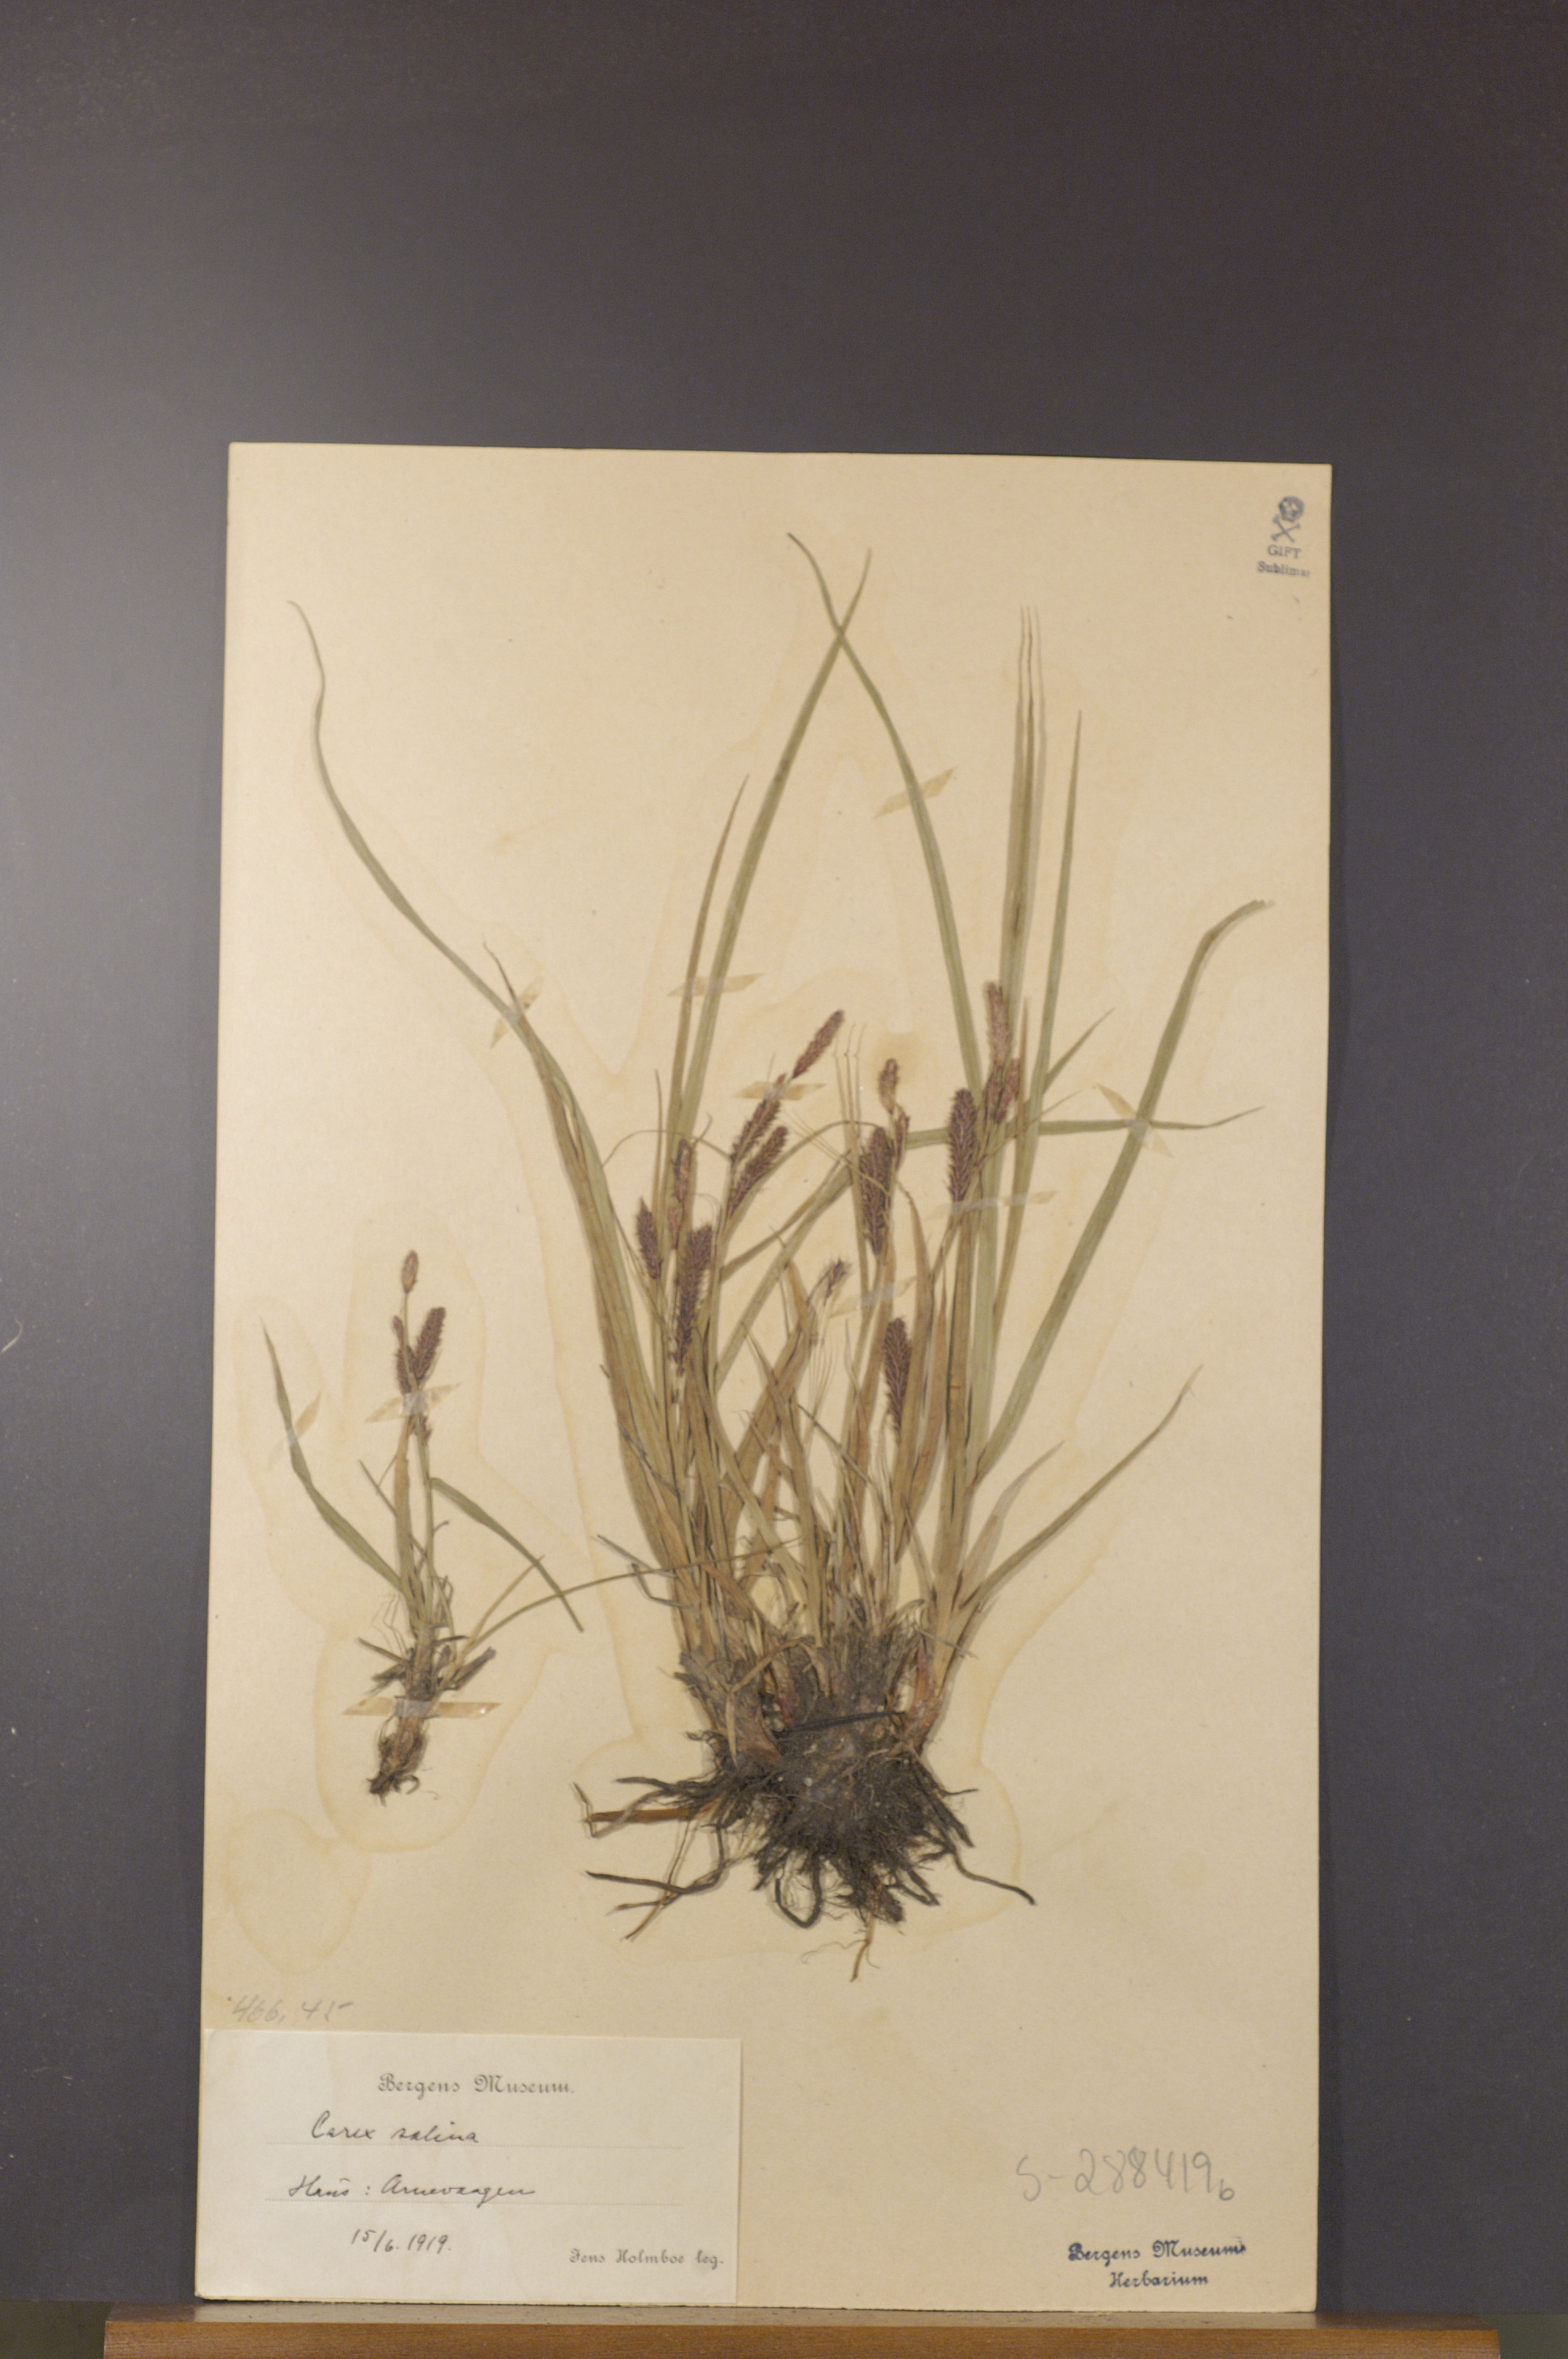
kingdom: Plantae
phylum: Tracheophyta
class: Liliopsida
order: Poales
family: Cyperaceae
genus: Carex
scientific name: Carex vacillans
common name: Sedge
